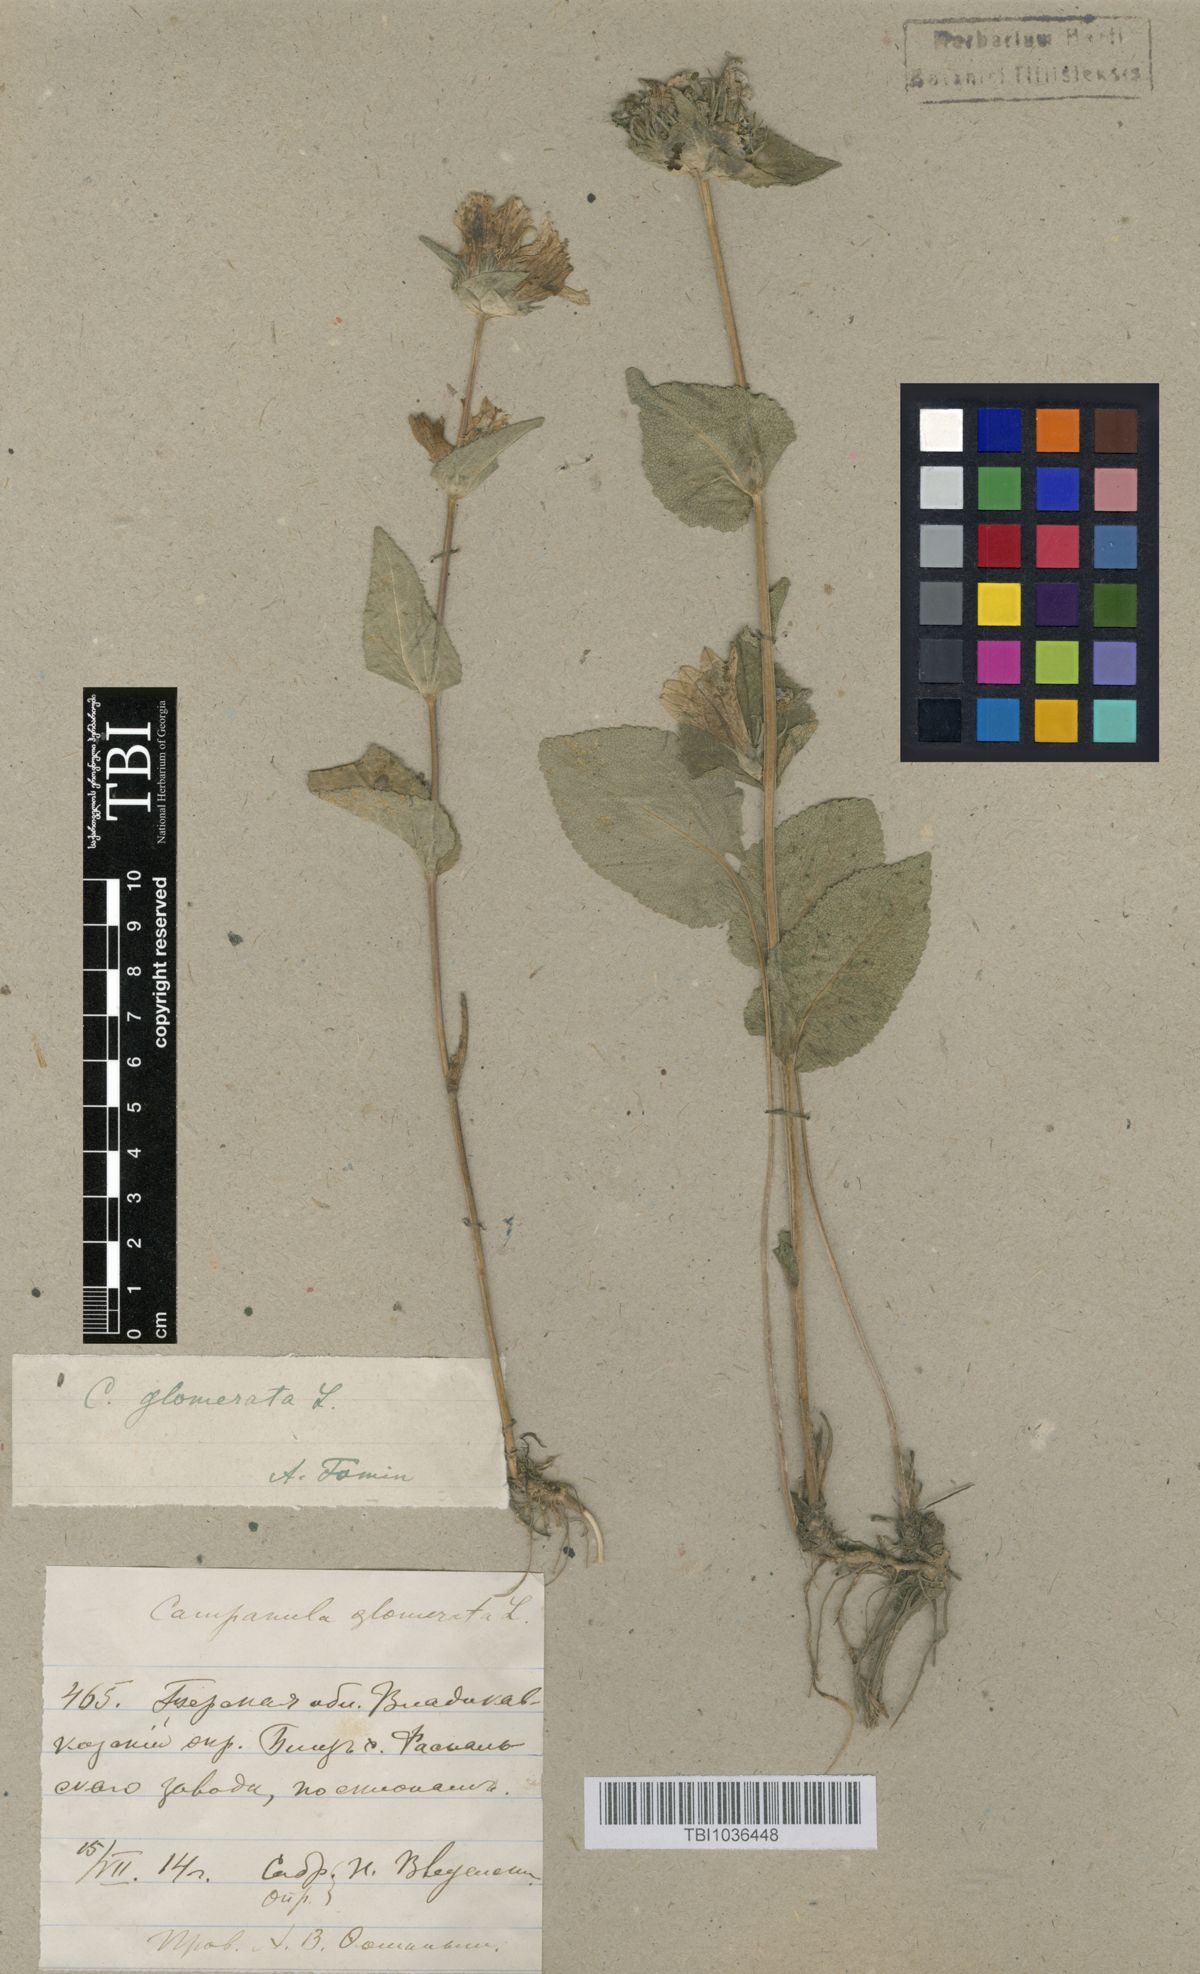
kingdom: Plantae
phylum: Tracheophyta
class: Magnoliopsida
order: Asterales
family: Campanulaceae
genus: Campanula
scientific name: Campanula glomerata
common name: Clustered bellflower
